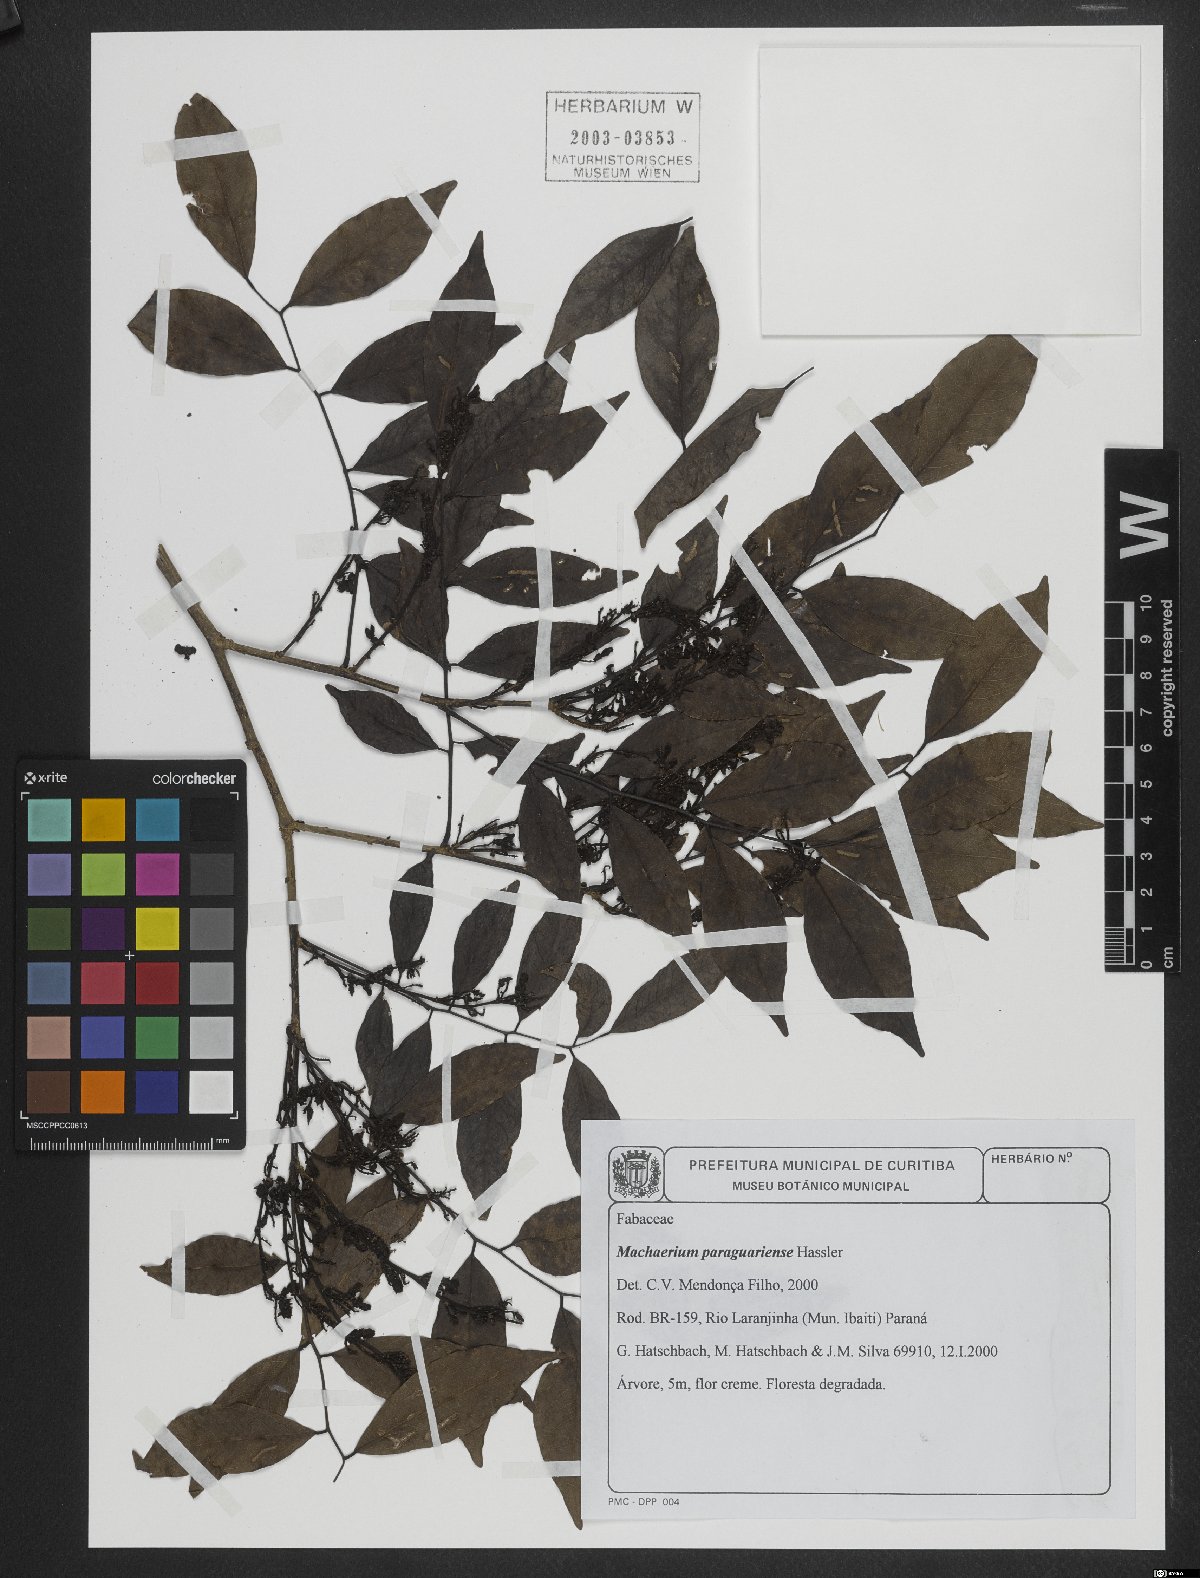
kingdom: Plantae
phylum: Tracheophyta
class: Magnoliopsida
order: Fabales
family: Fabaceae
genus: Machaerium
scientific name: Machaerium oblongifolium
